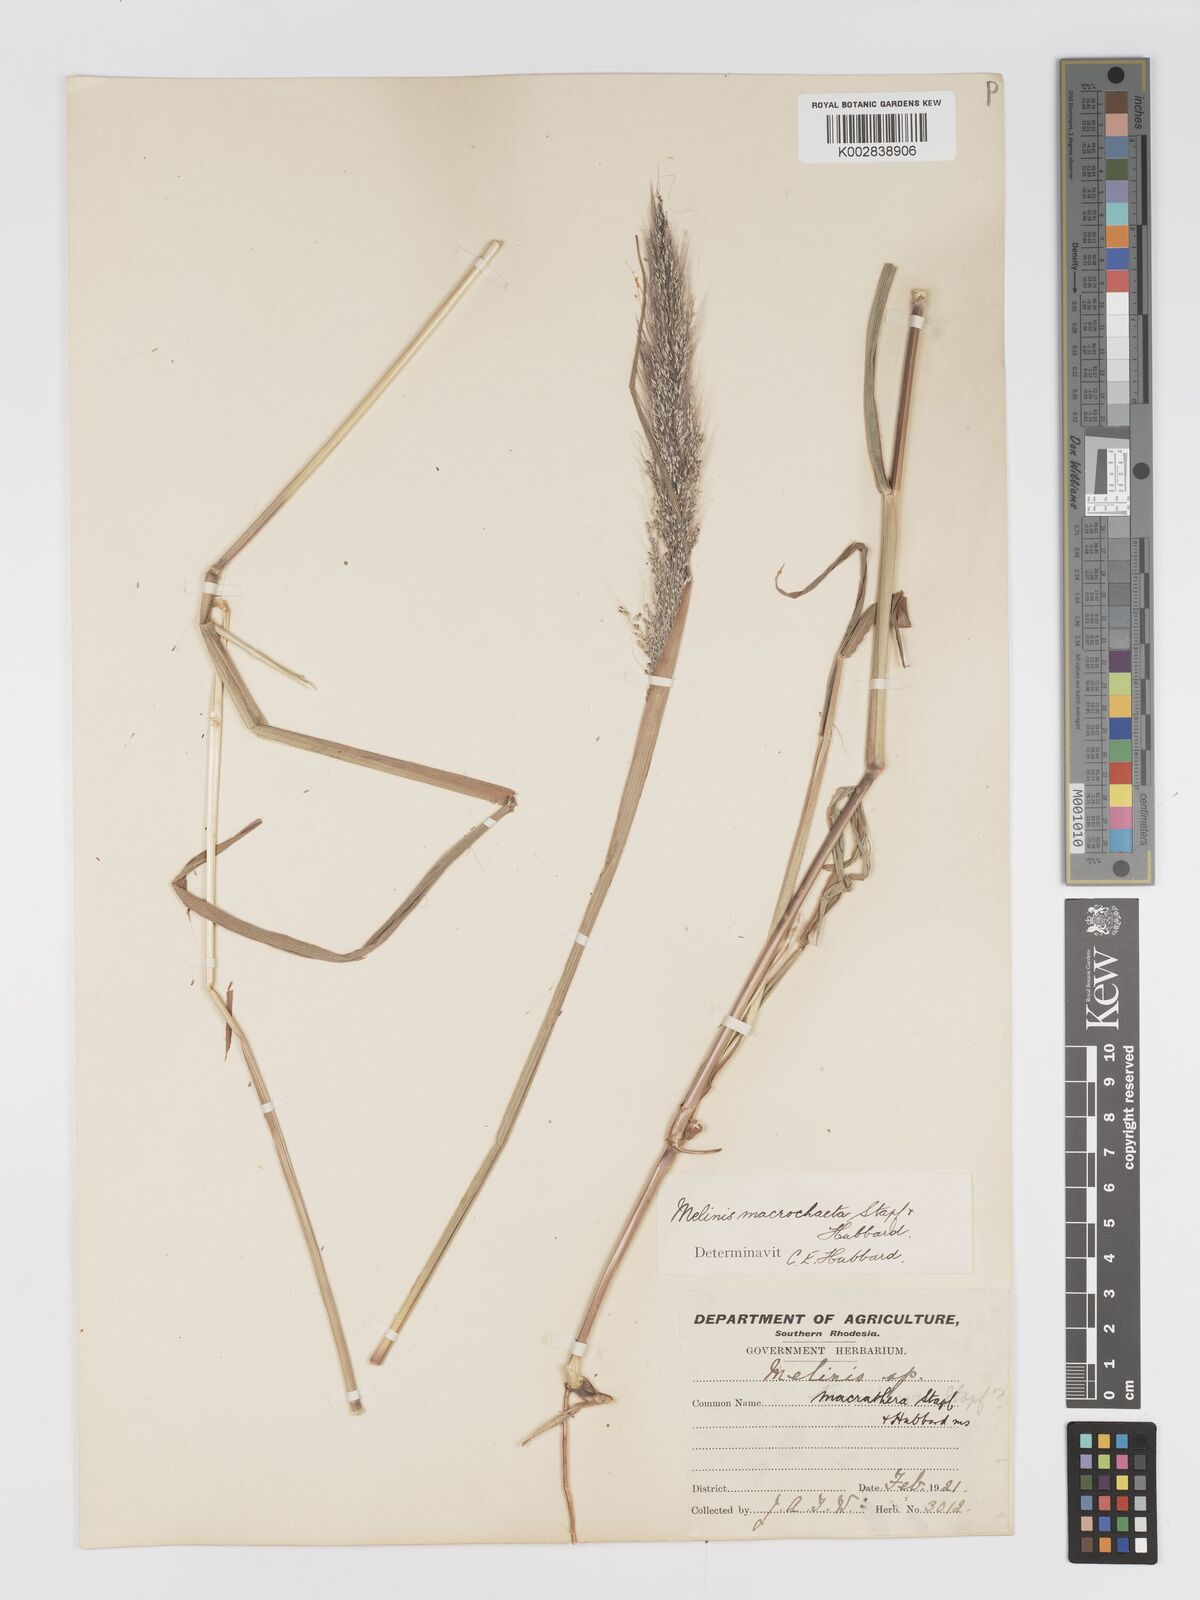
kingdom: Plantae
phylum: Tracheophyta
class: Liliopsida
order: Poales
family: Poaceae
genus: Melinis
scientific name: Melinis macrochaeta
